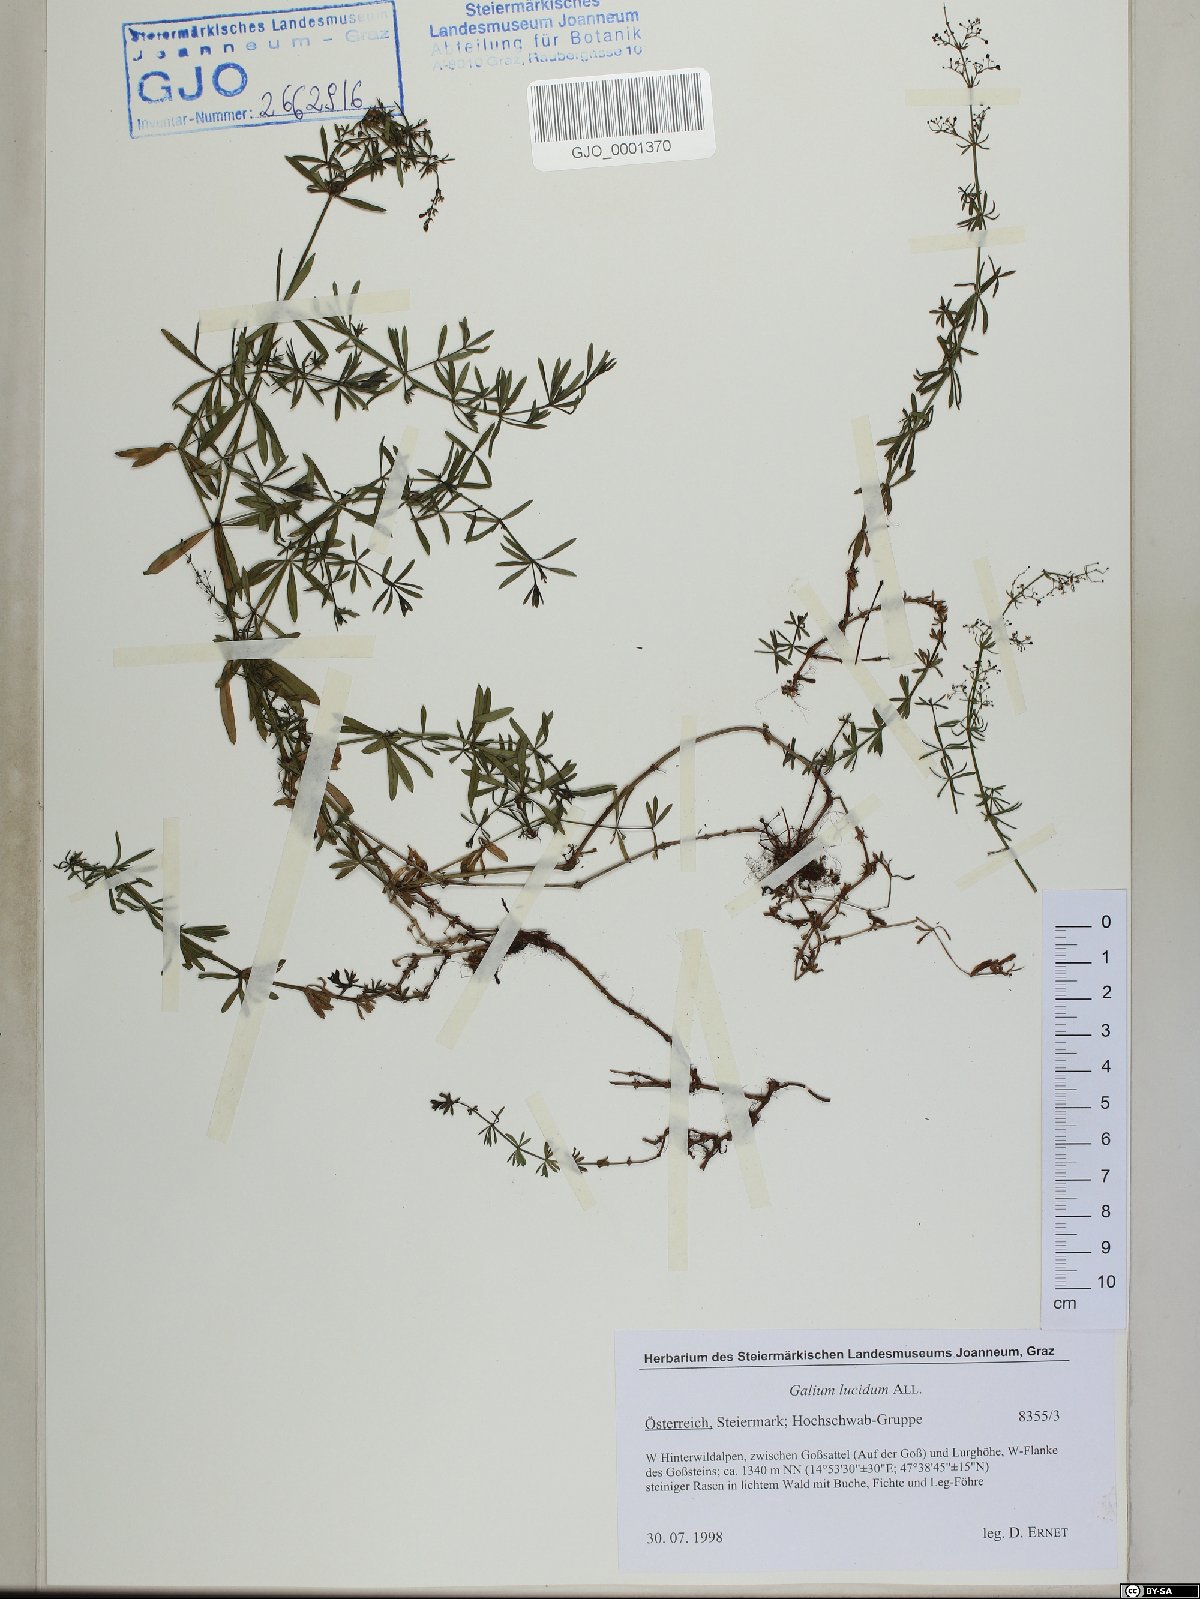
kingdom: Plantae
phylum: Tracheophyta
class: Magnoliopsida
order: Gentianales
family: Rubiaceae
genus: Galium
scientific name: Galium lucidum
